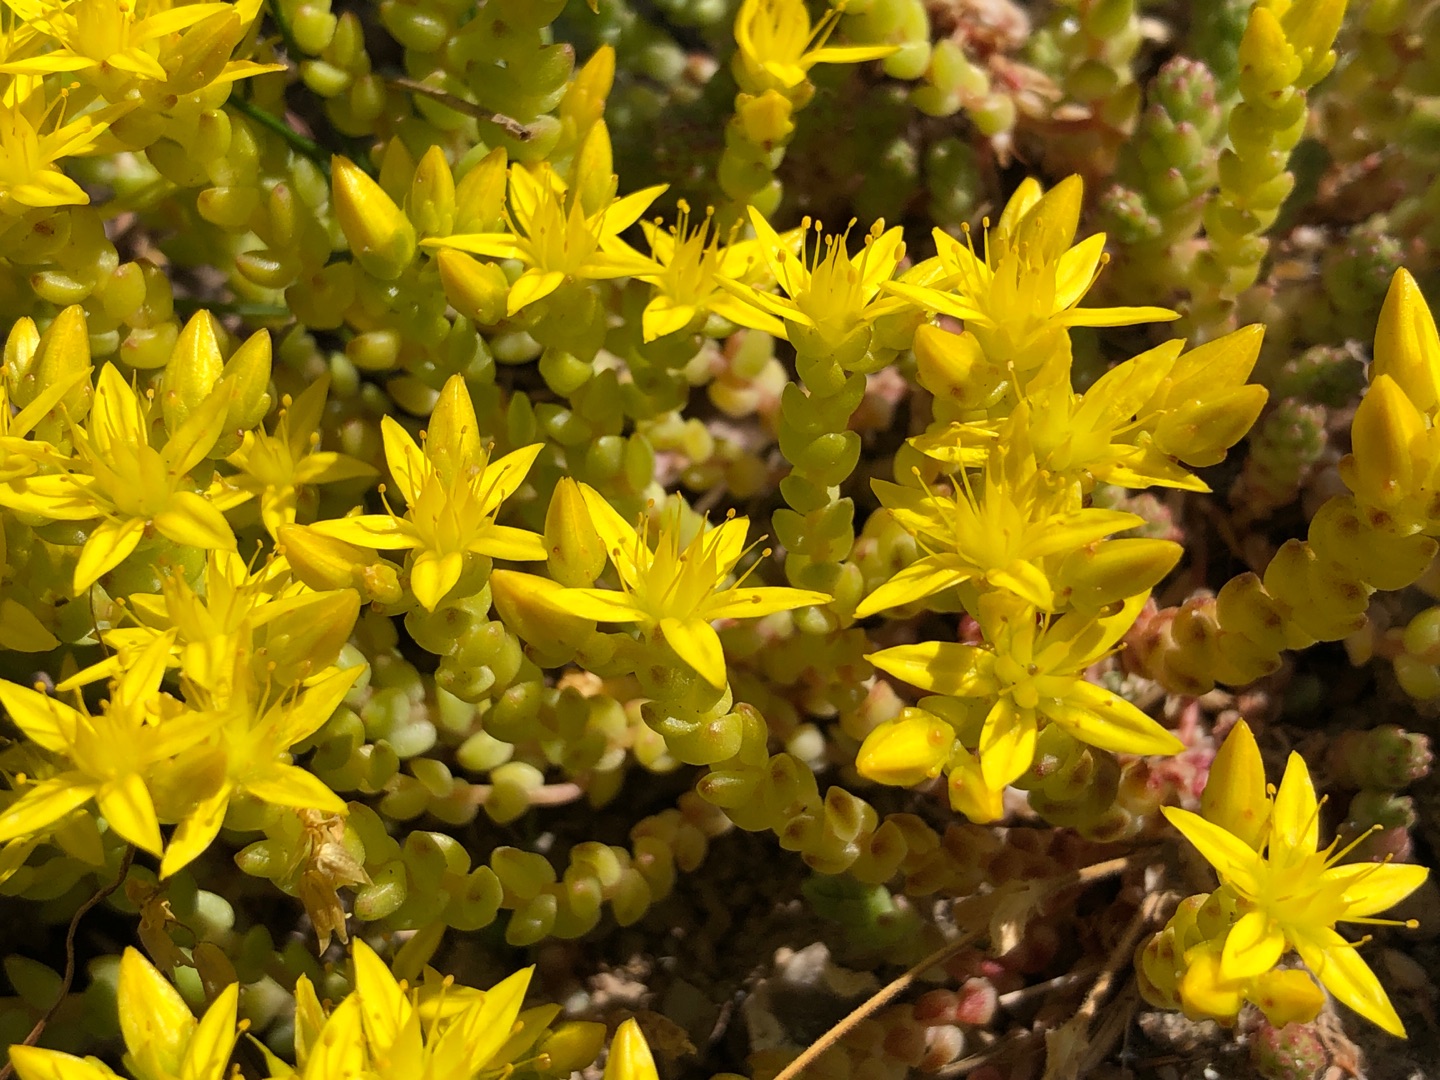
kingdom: Plantae
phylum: Tracheophyta
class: Magnoliopsida
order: Saxifragales
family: Crassulaceae
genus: Sedum
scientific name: Sedum acre
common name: Bidende stenurt
